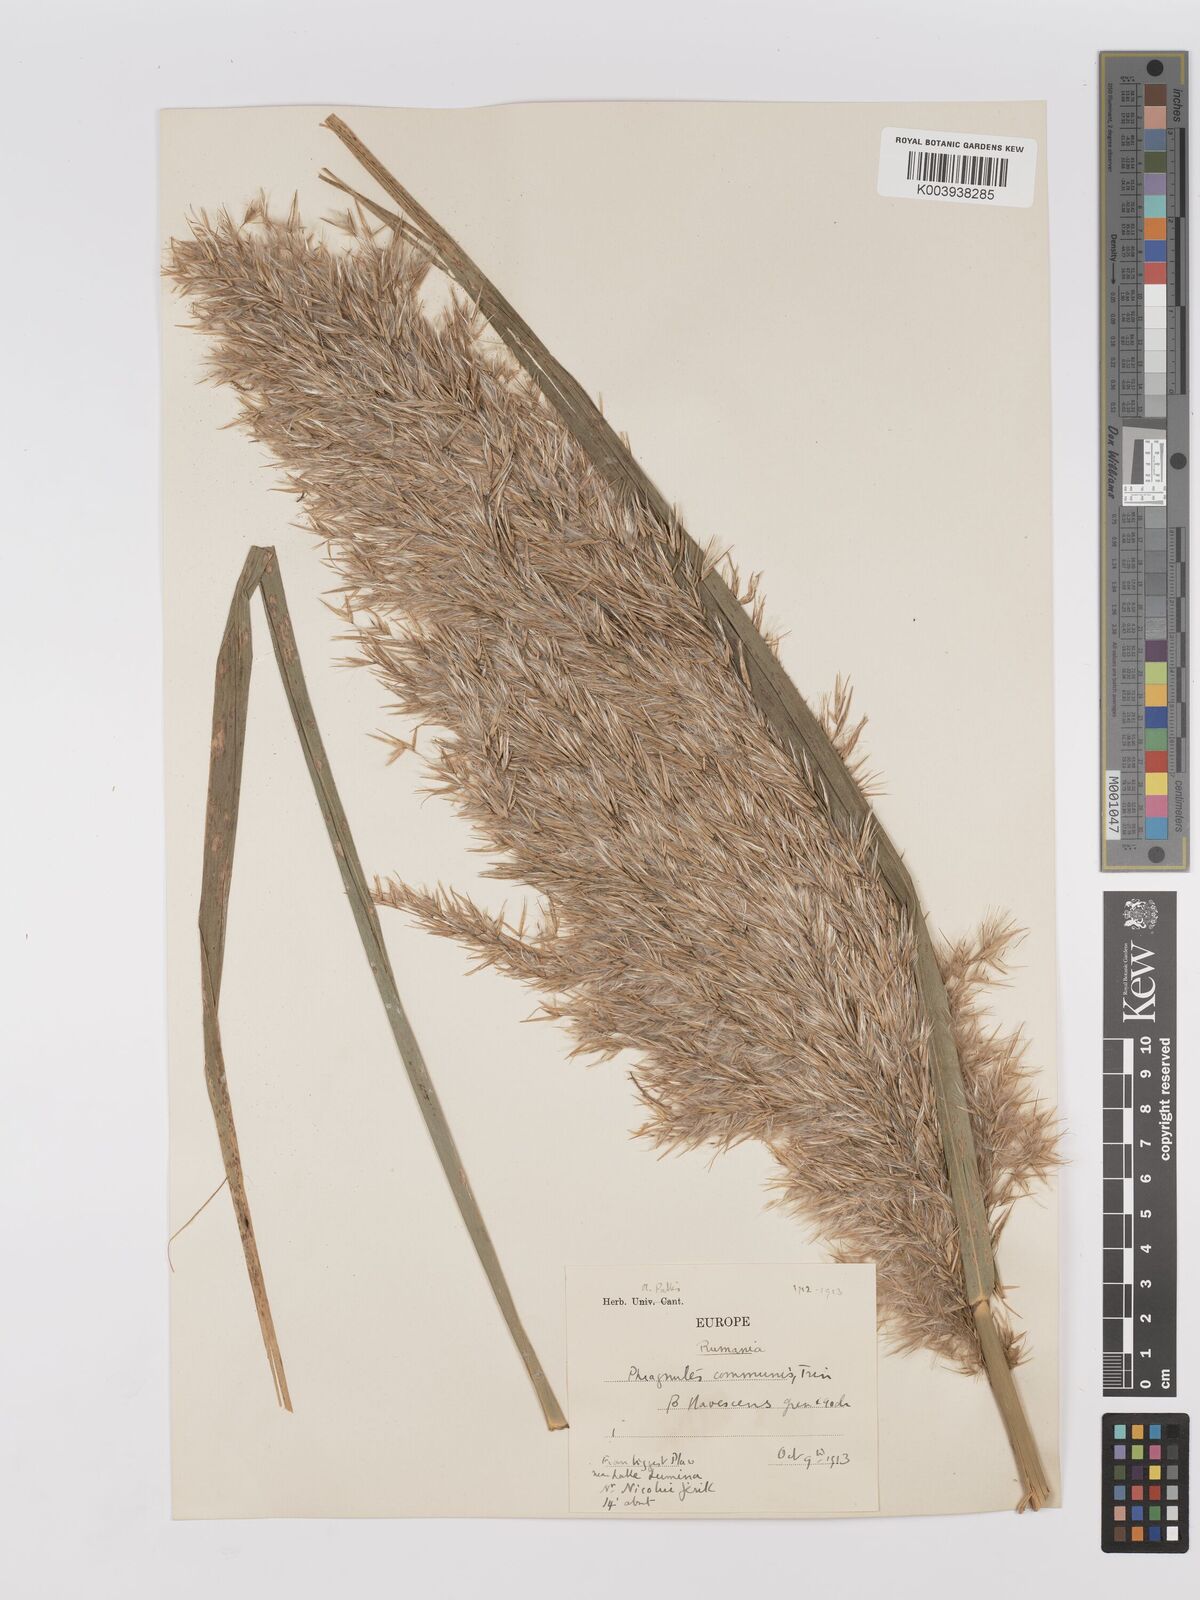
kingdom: Plantae
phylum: Tracheophyta
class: Liliopsida
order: Poales
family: Poaceae
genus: Phragmites
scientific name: Phragmites australis
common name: Common reed
